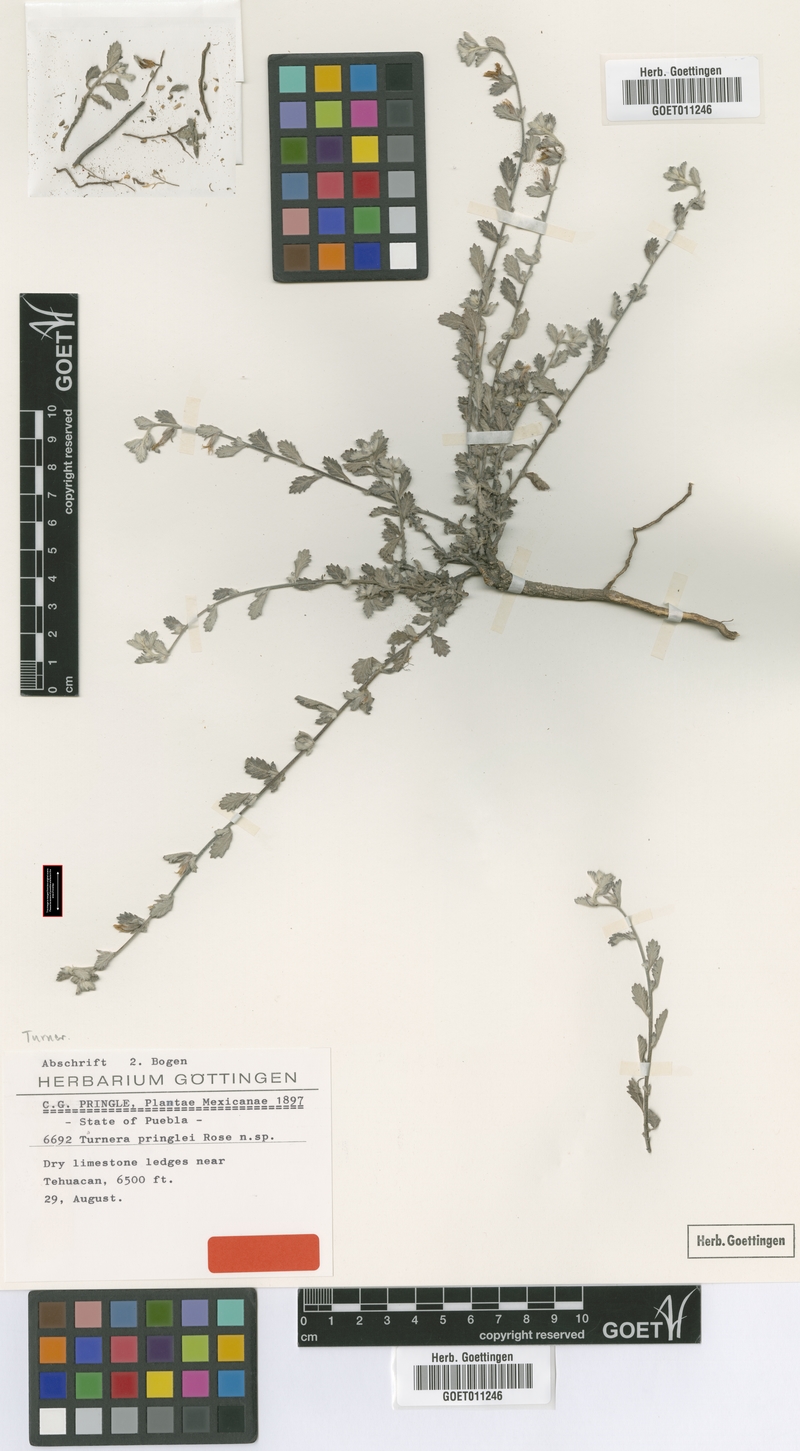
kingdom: Plantae
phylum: Tracheophyta
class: Magnoliopsida
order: Malpighiales
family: Turneraceae
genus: Turnera
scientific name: Turnera diffusa
